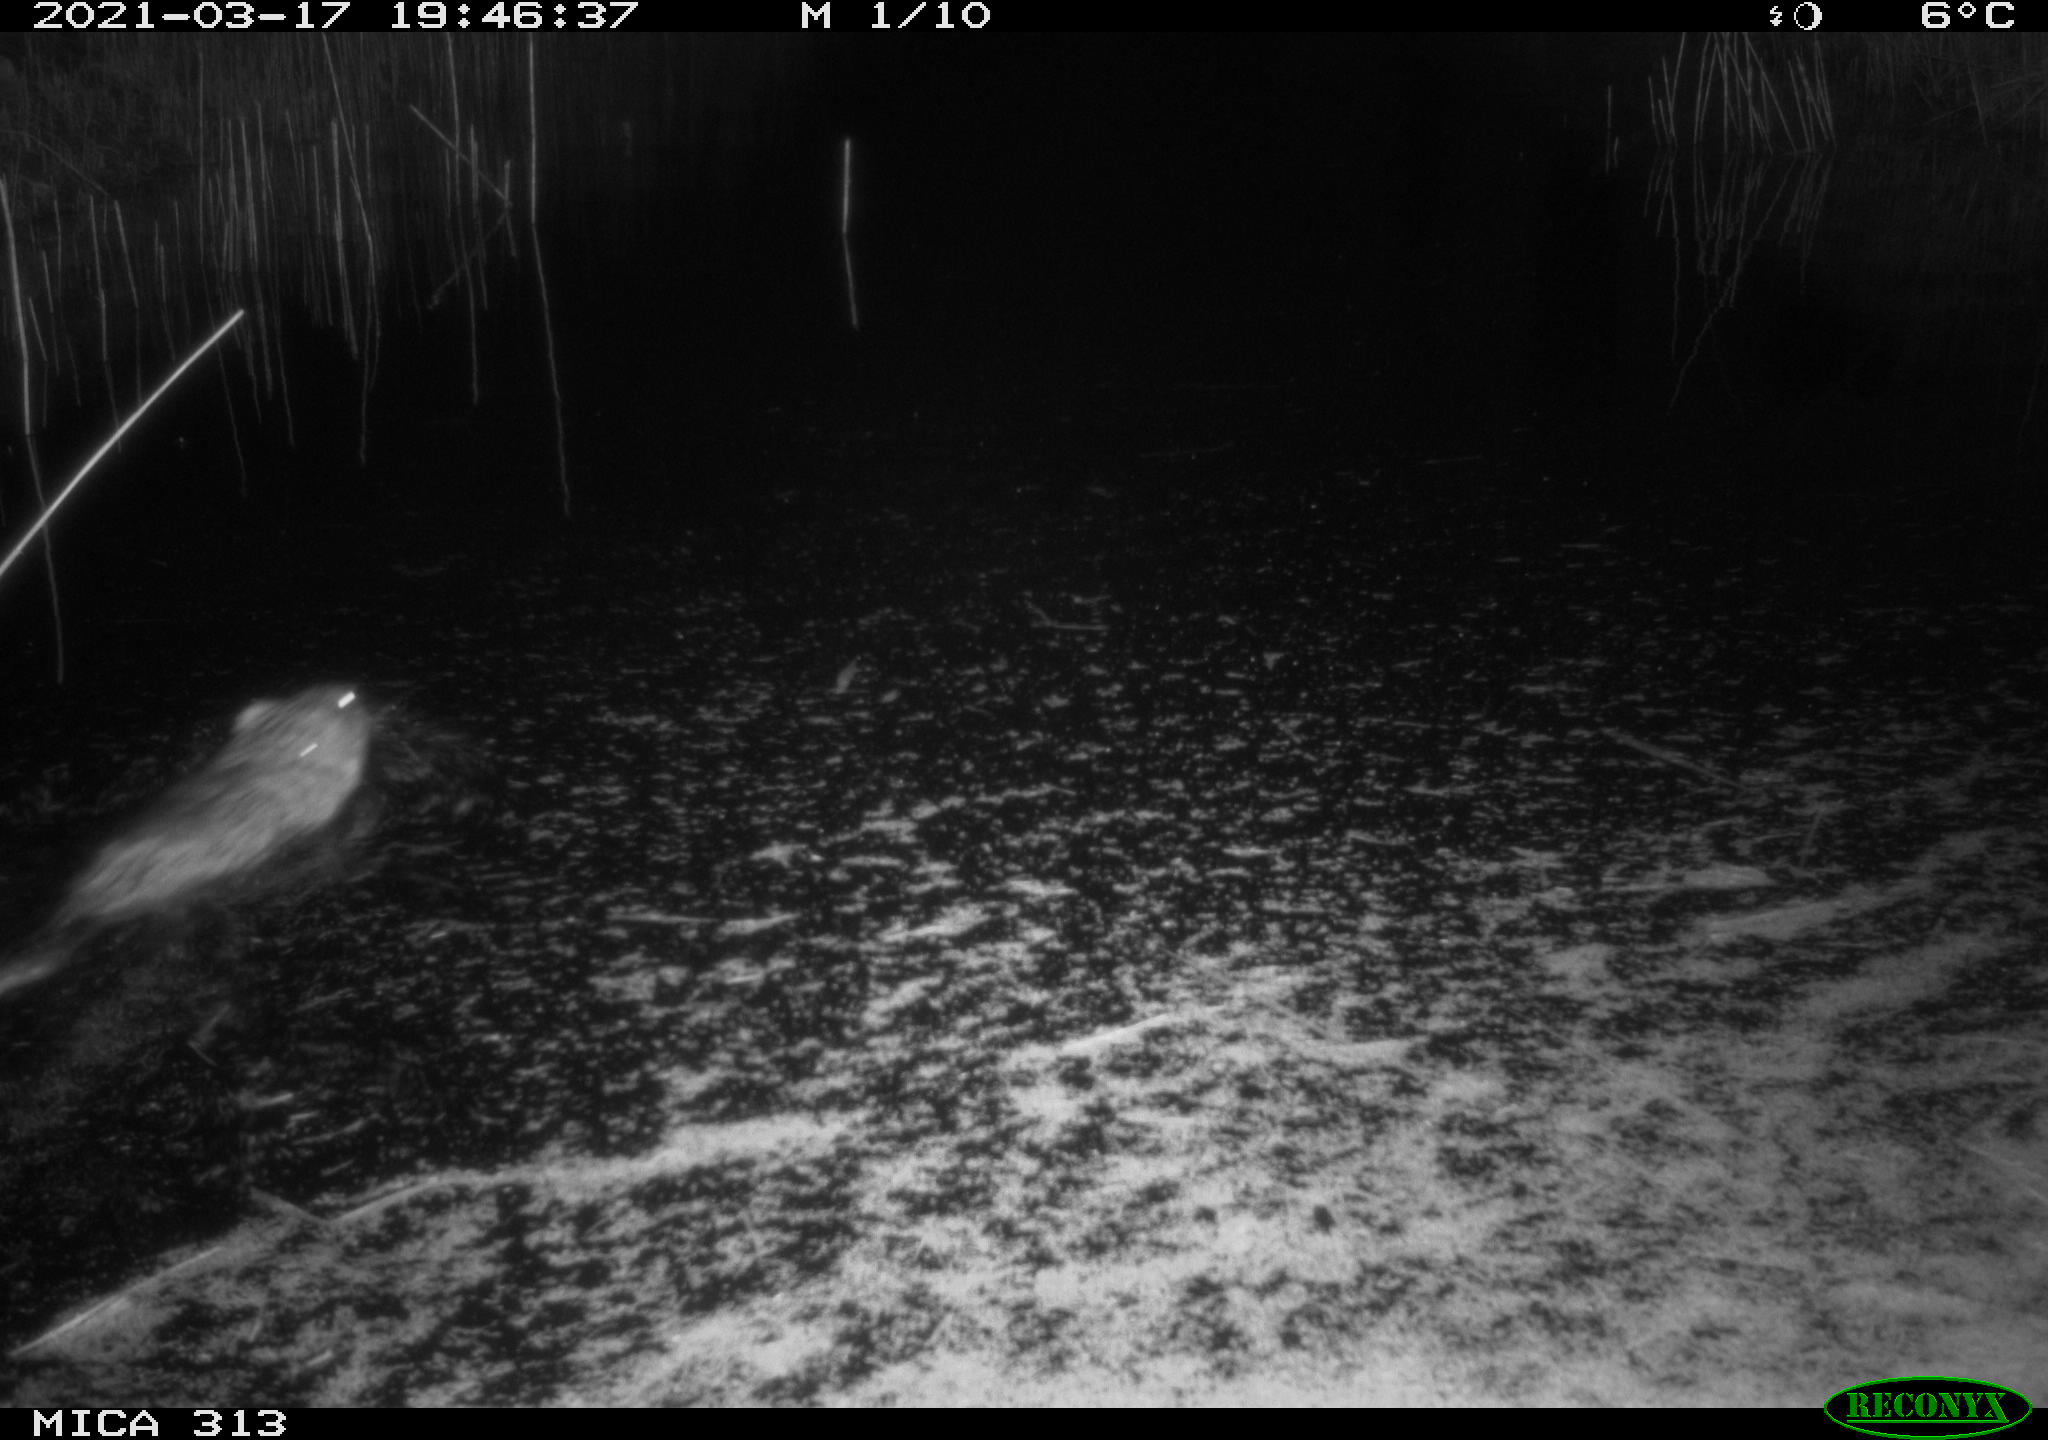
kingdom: Animalia
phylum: Chordata
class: Mammalia
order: Rodentia
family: Cricetidae
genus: Ondatra
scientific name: Ondatra zibethicus
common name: Muskrat
